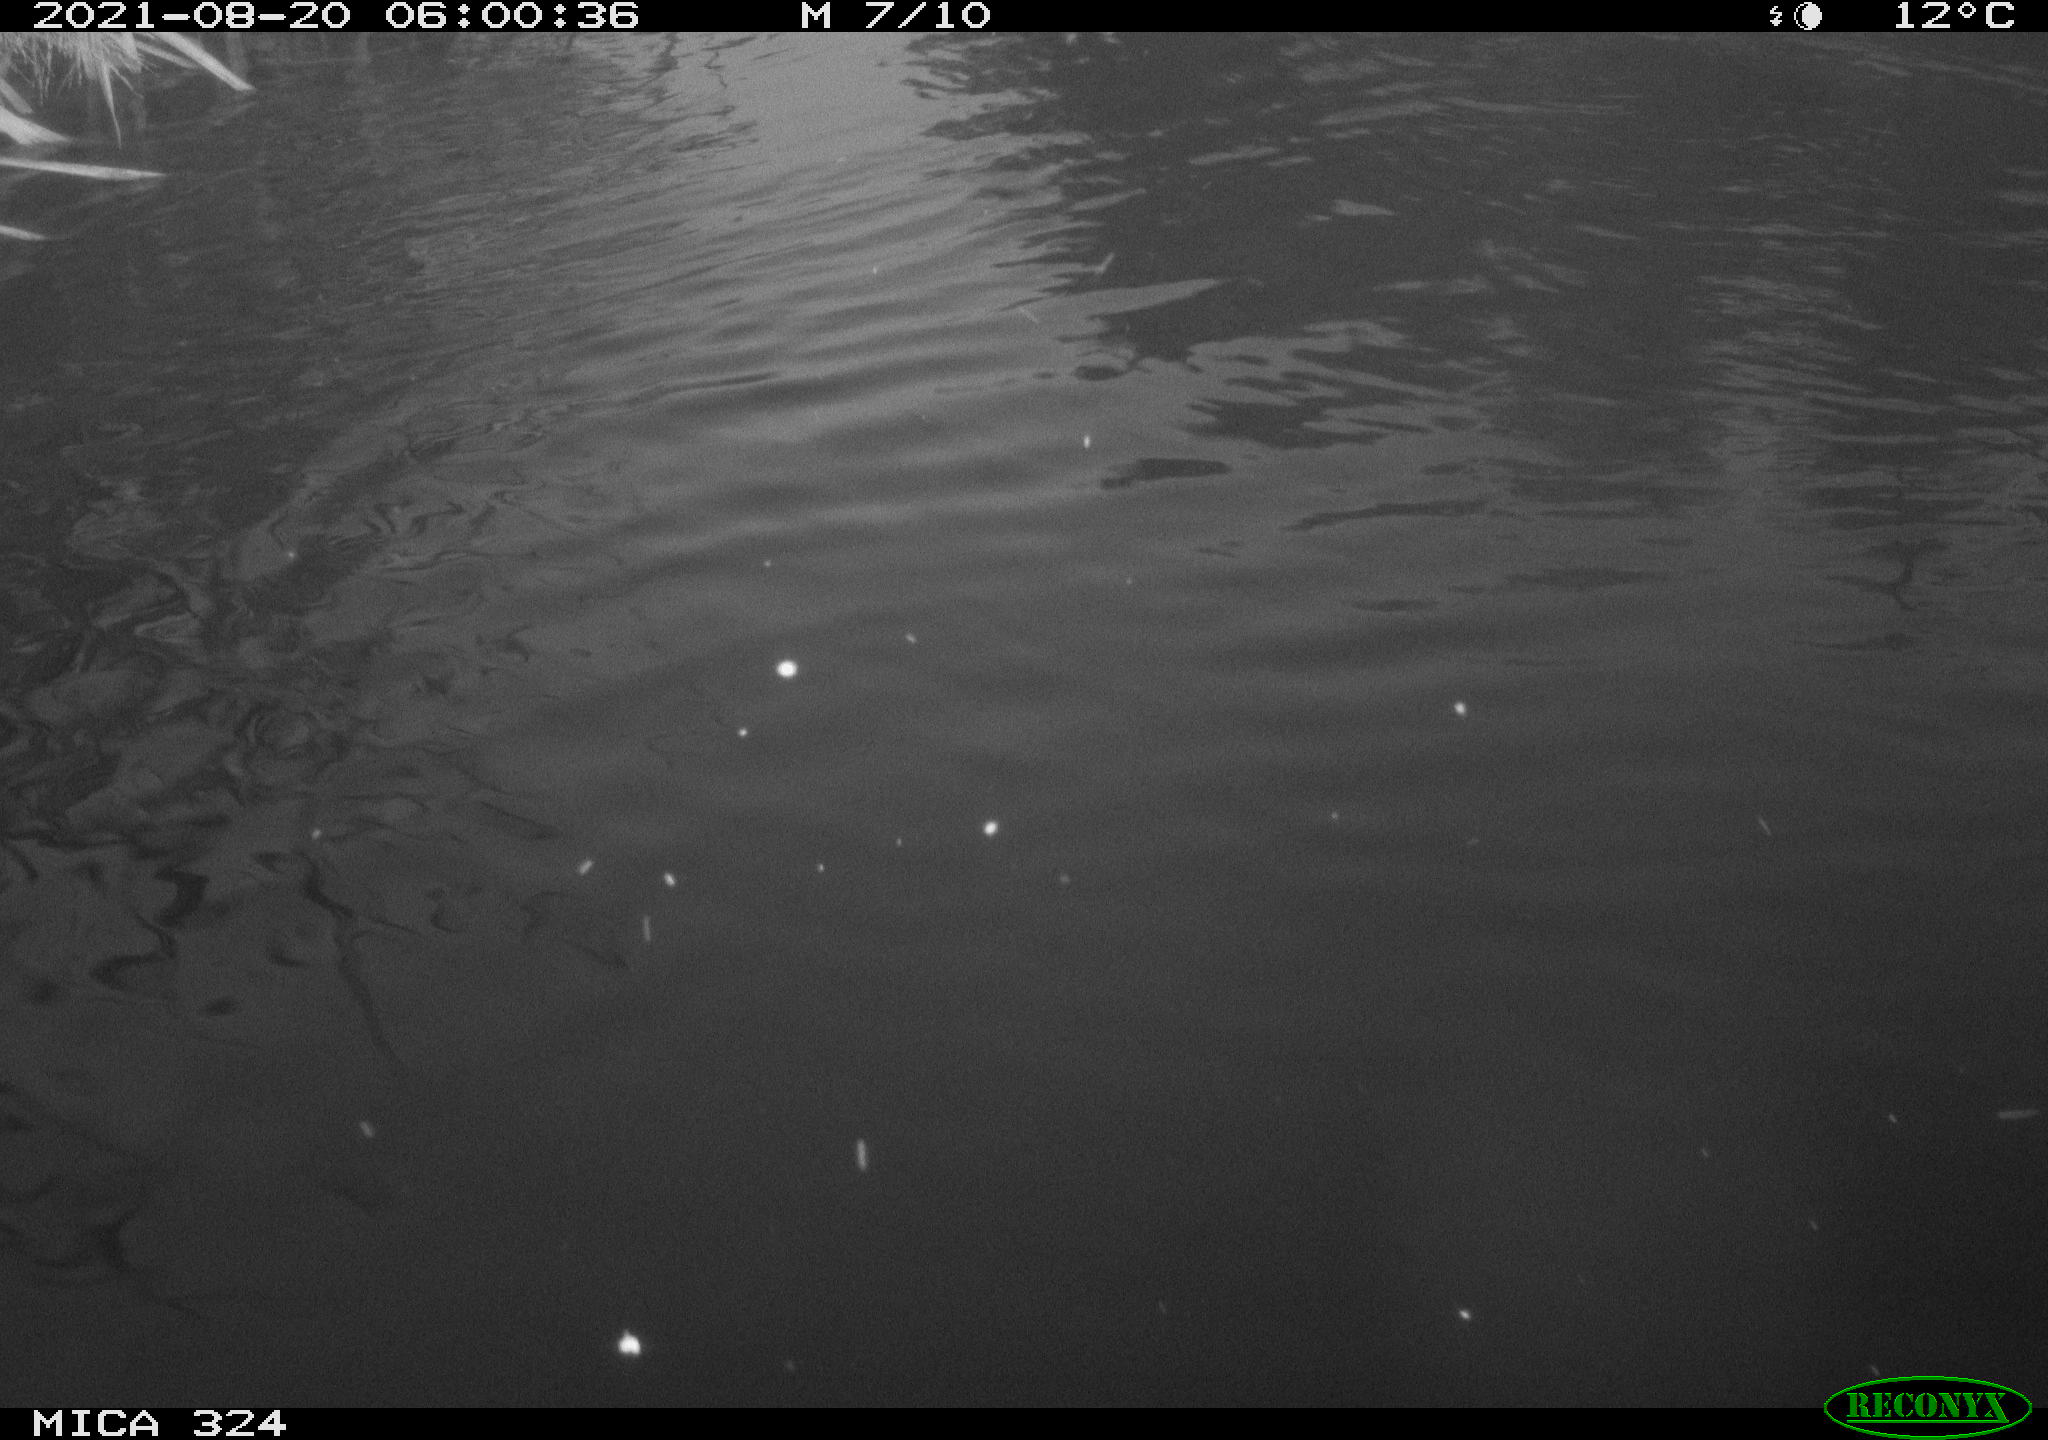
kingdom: Animalia
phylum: Chordata
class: Mammalia
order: Rodentia
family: Cricetidae
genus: Ondatra
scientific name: Ondatra zibethicus
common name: Muskrat
